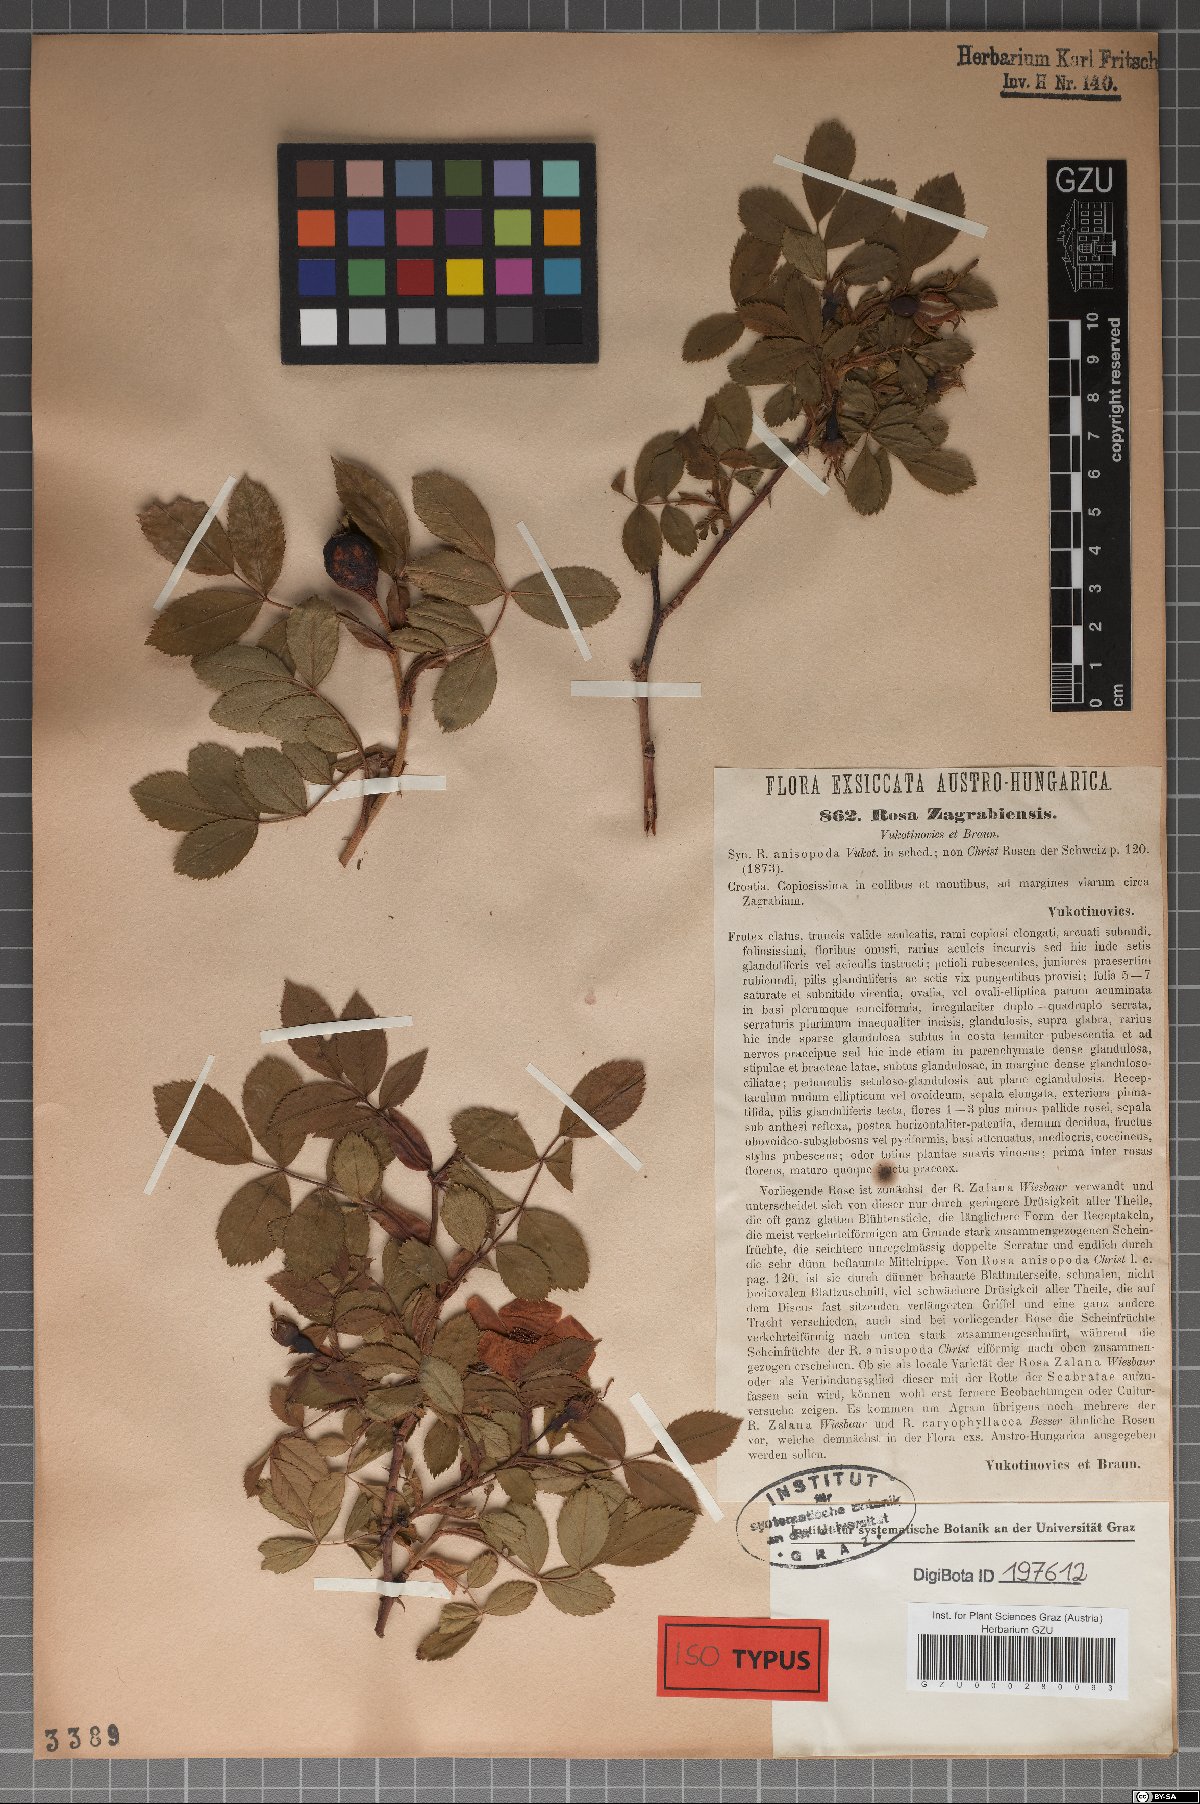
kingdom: Plantae
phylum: Tracheophyta
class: Magnoliopsida
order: Rosales
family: Rosaceae
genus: Rosa
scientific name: Rosa marginata
